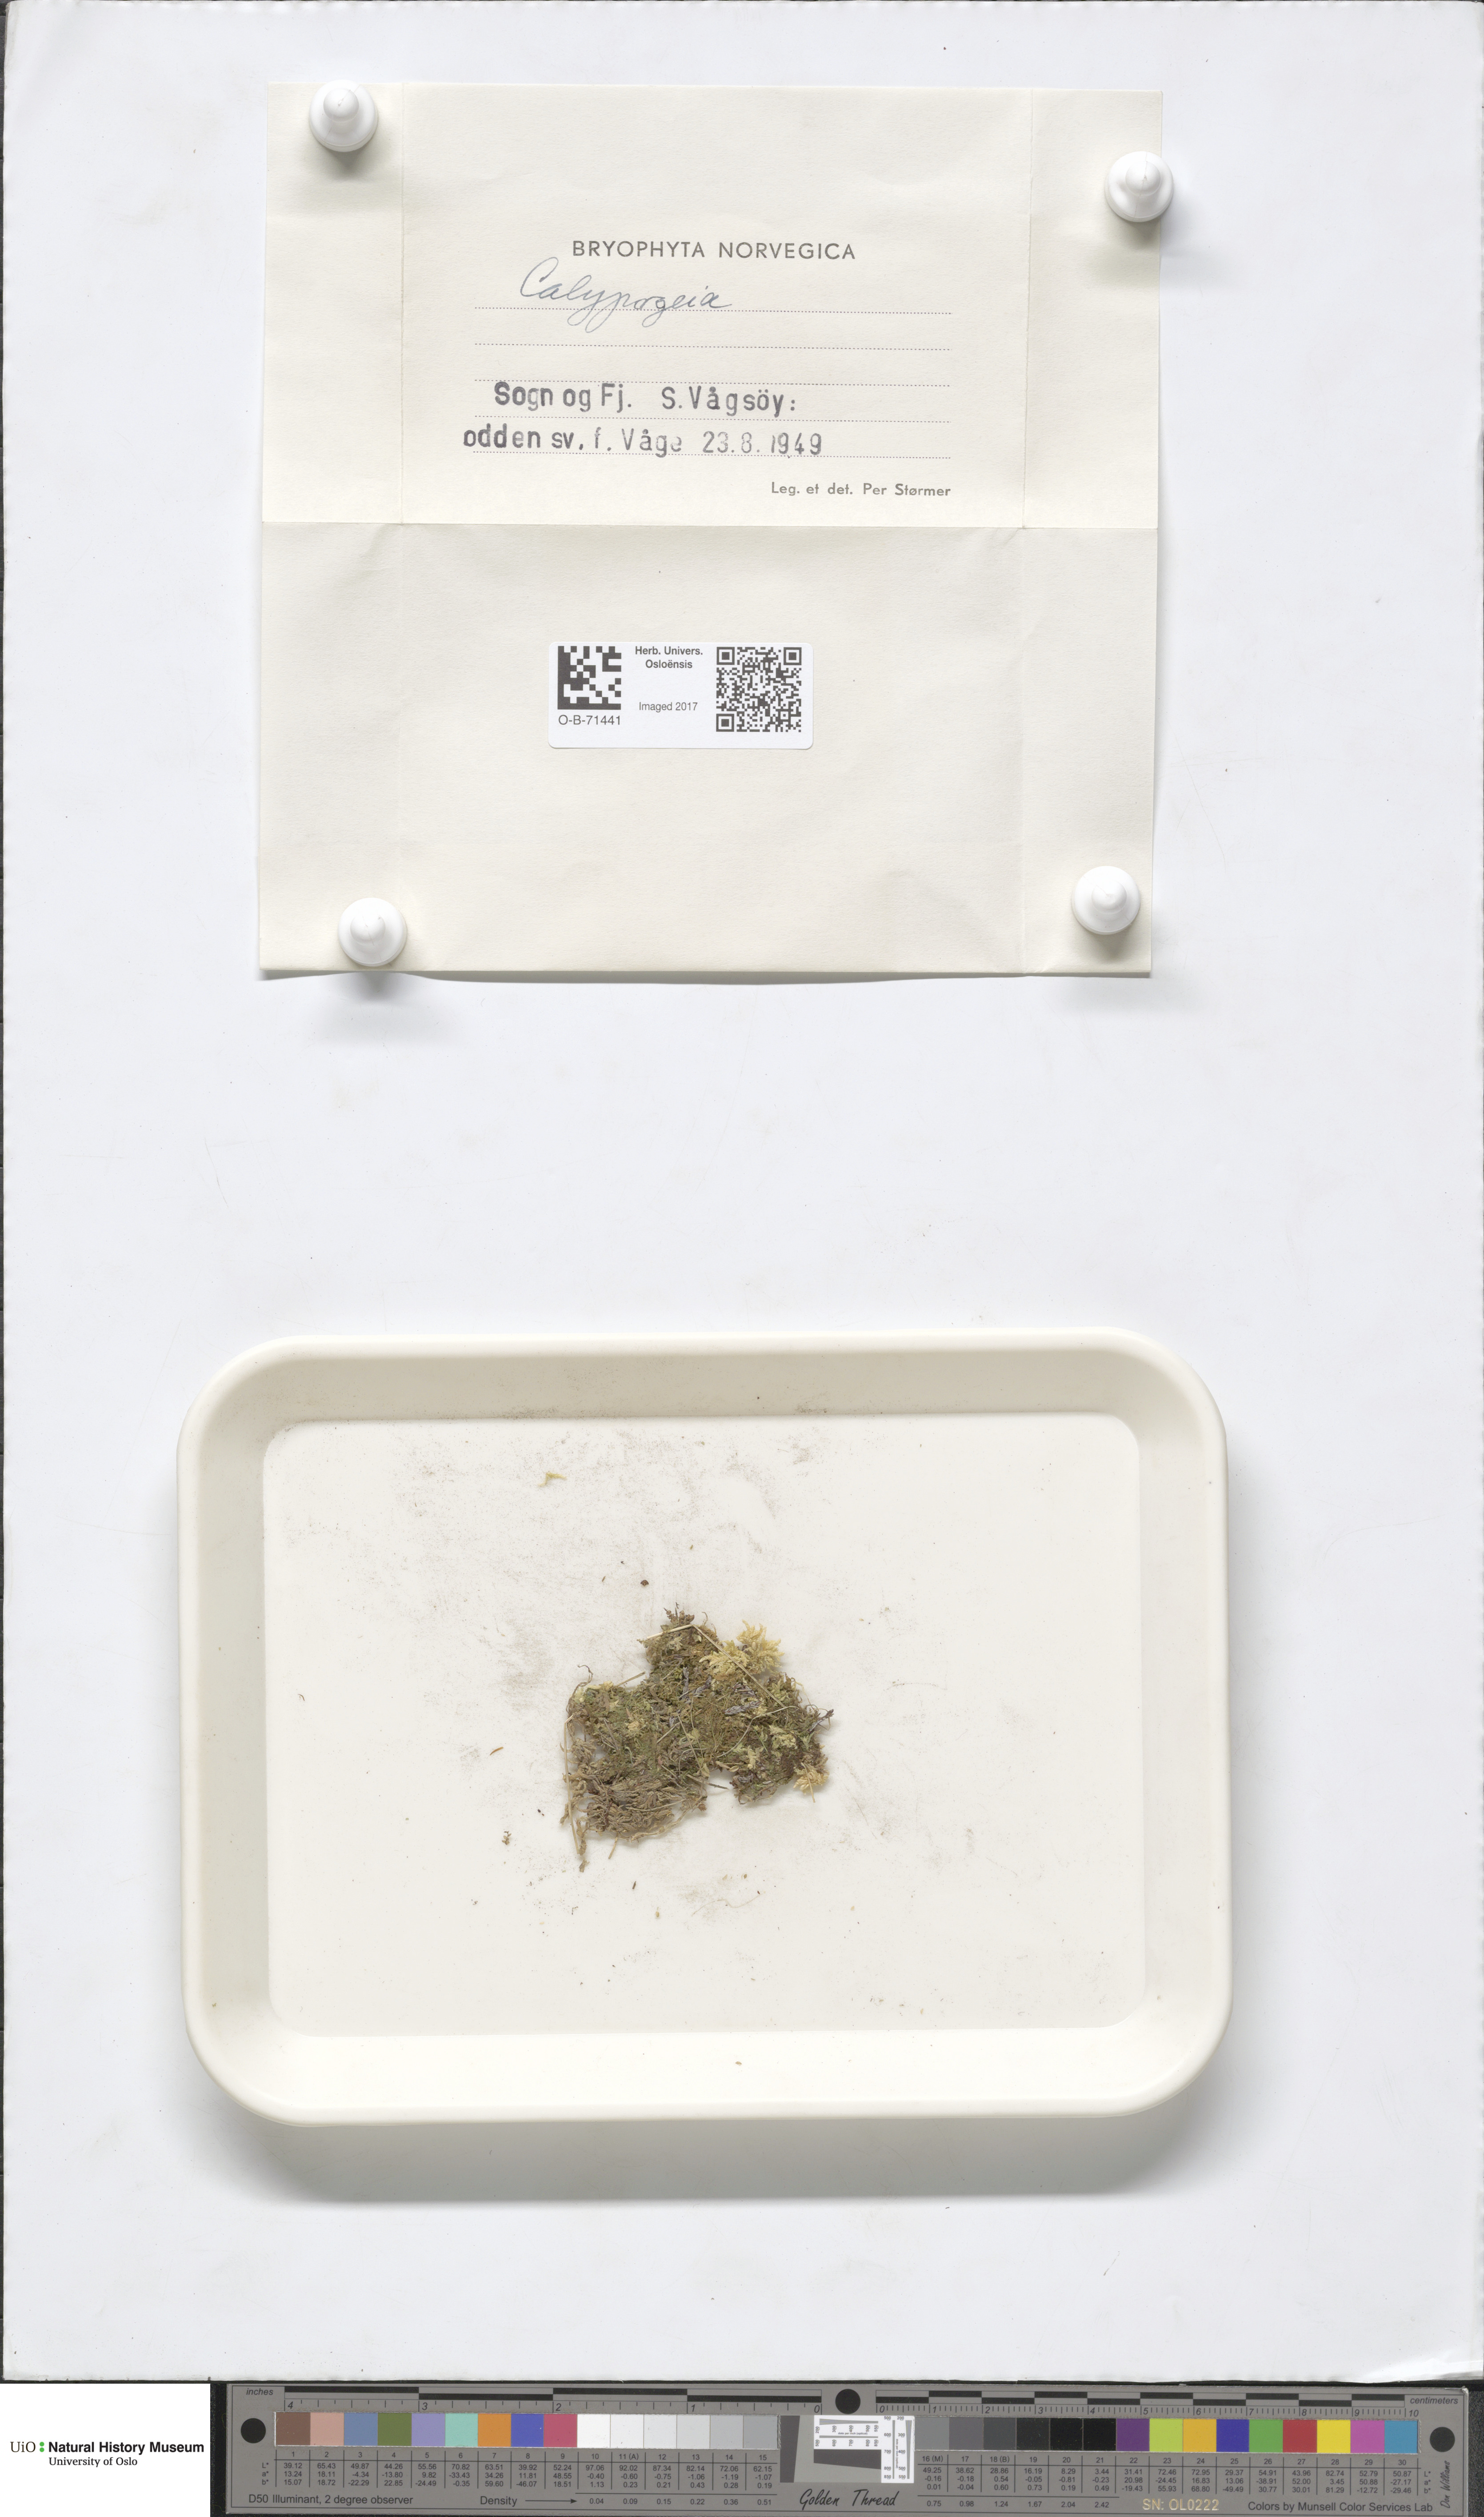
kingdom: Plantae
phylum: Marchantiophyta
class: Jungermanniopsida
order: Jungermanniales
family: Calypogeiaceae
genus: Calypogeia
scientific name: Calypogeia
